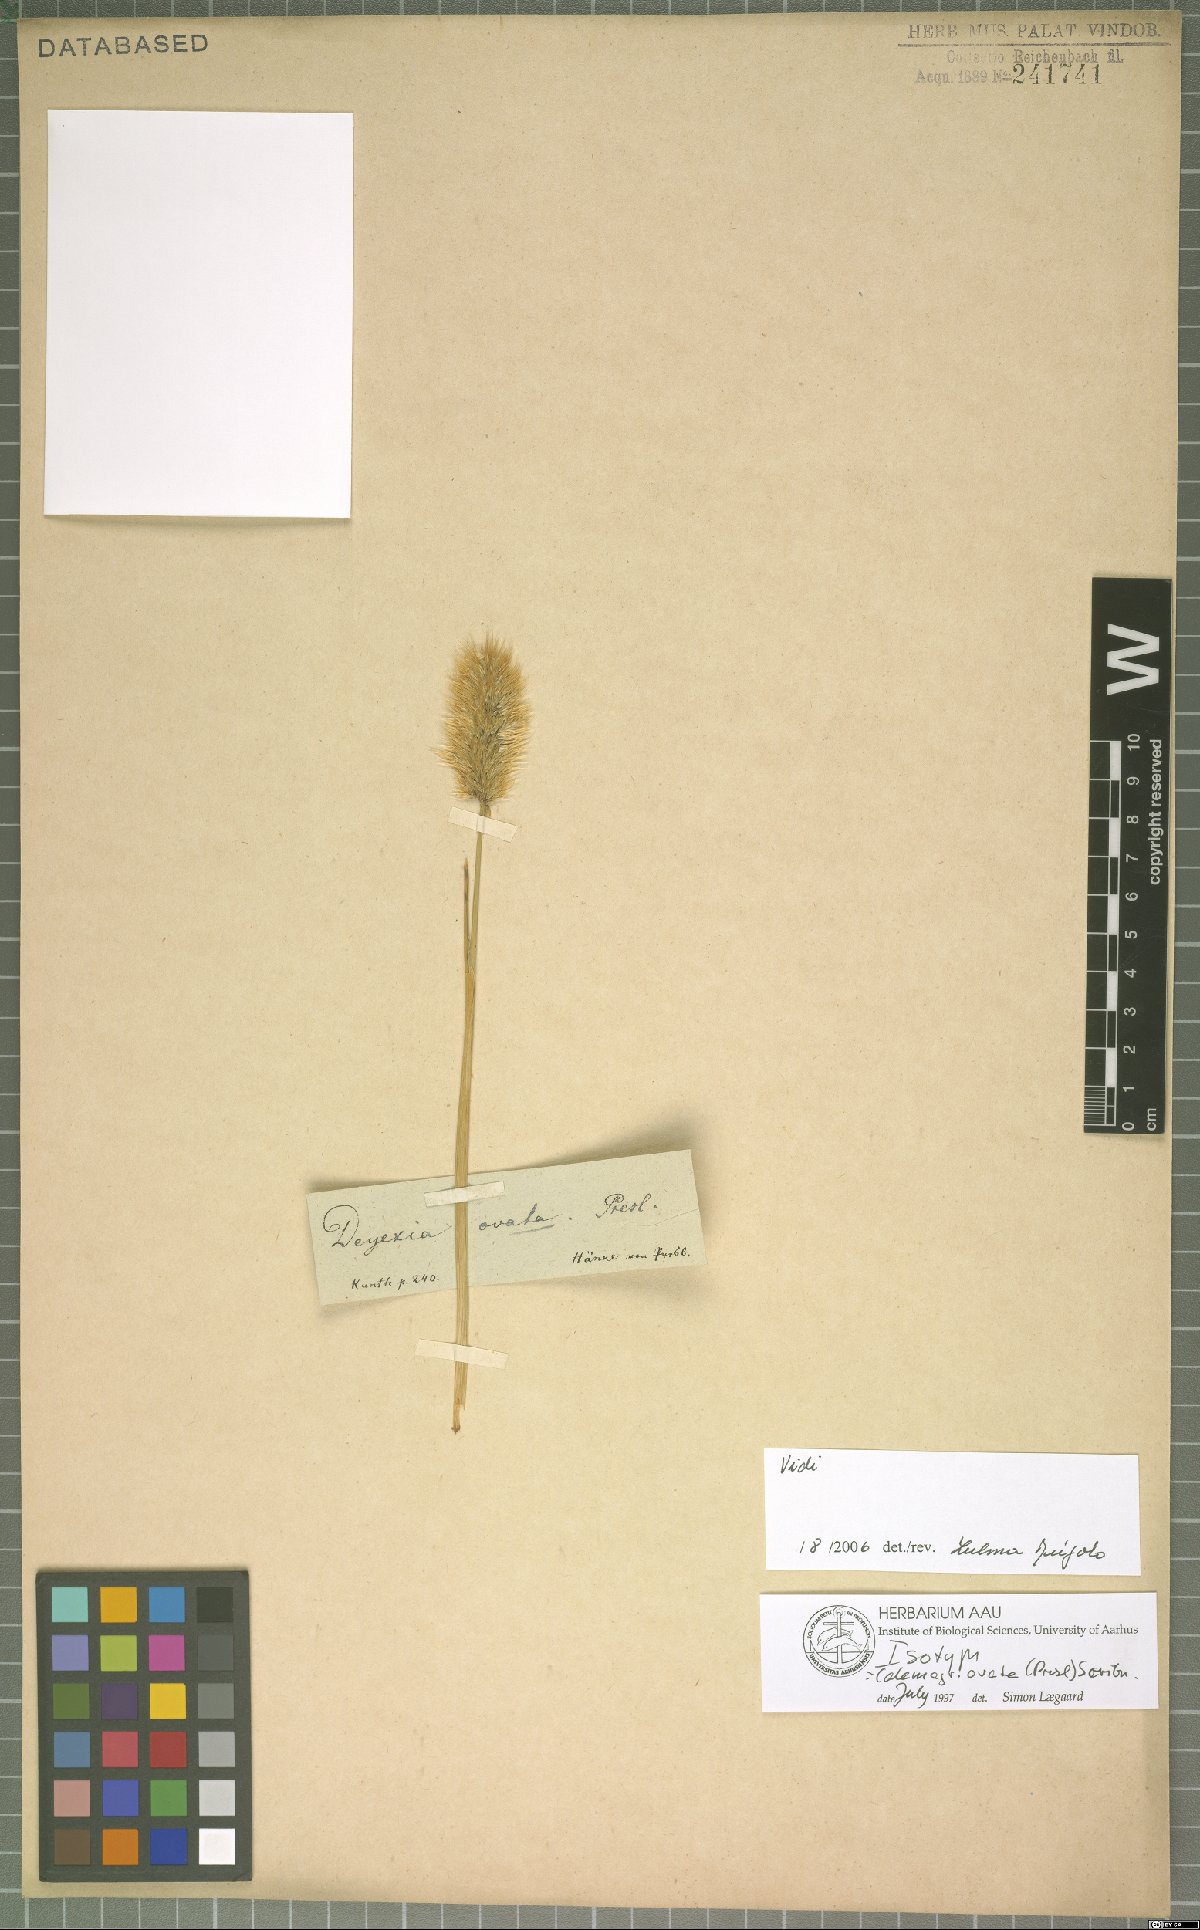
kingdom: Plantae
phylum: Tracheophyta
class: Liliopsida
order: Poales
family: Poaceae
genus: Deschampsia
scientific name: Deschampsia ovata
